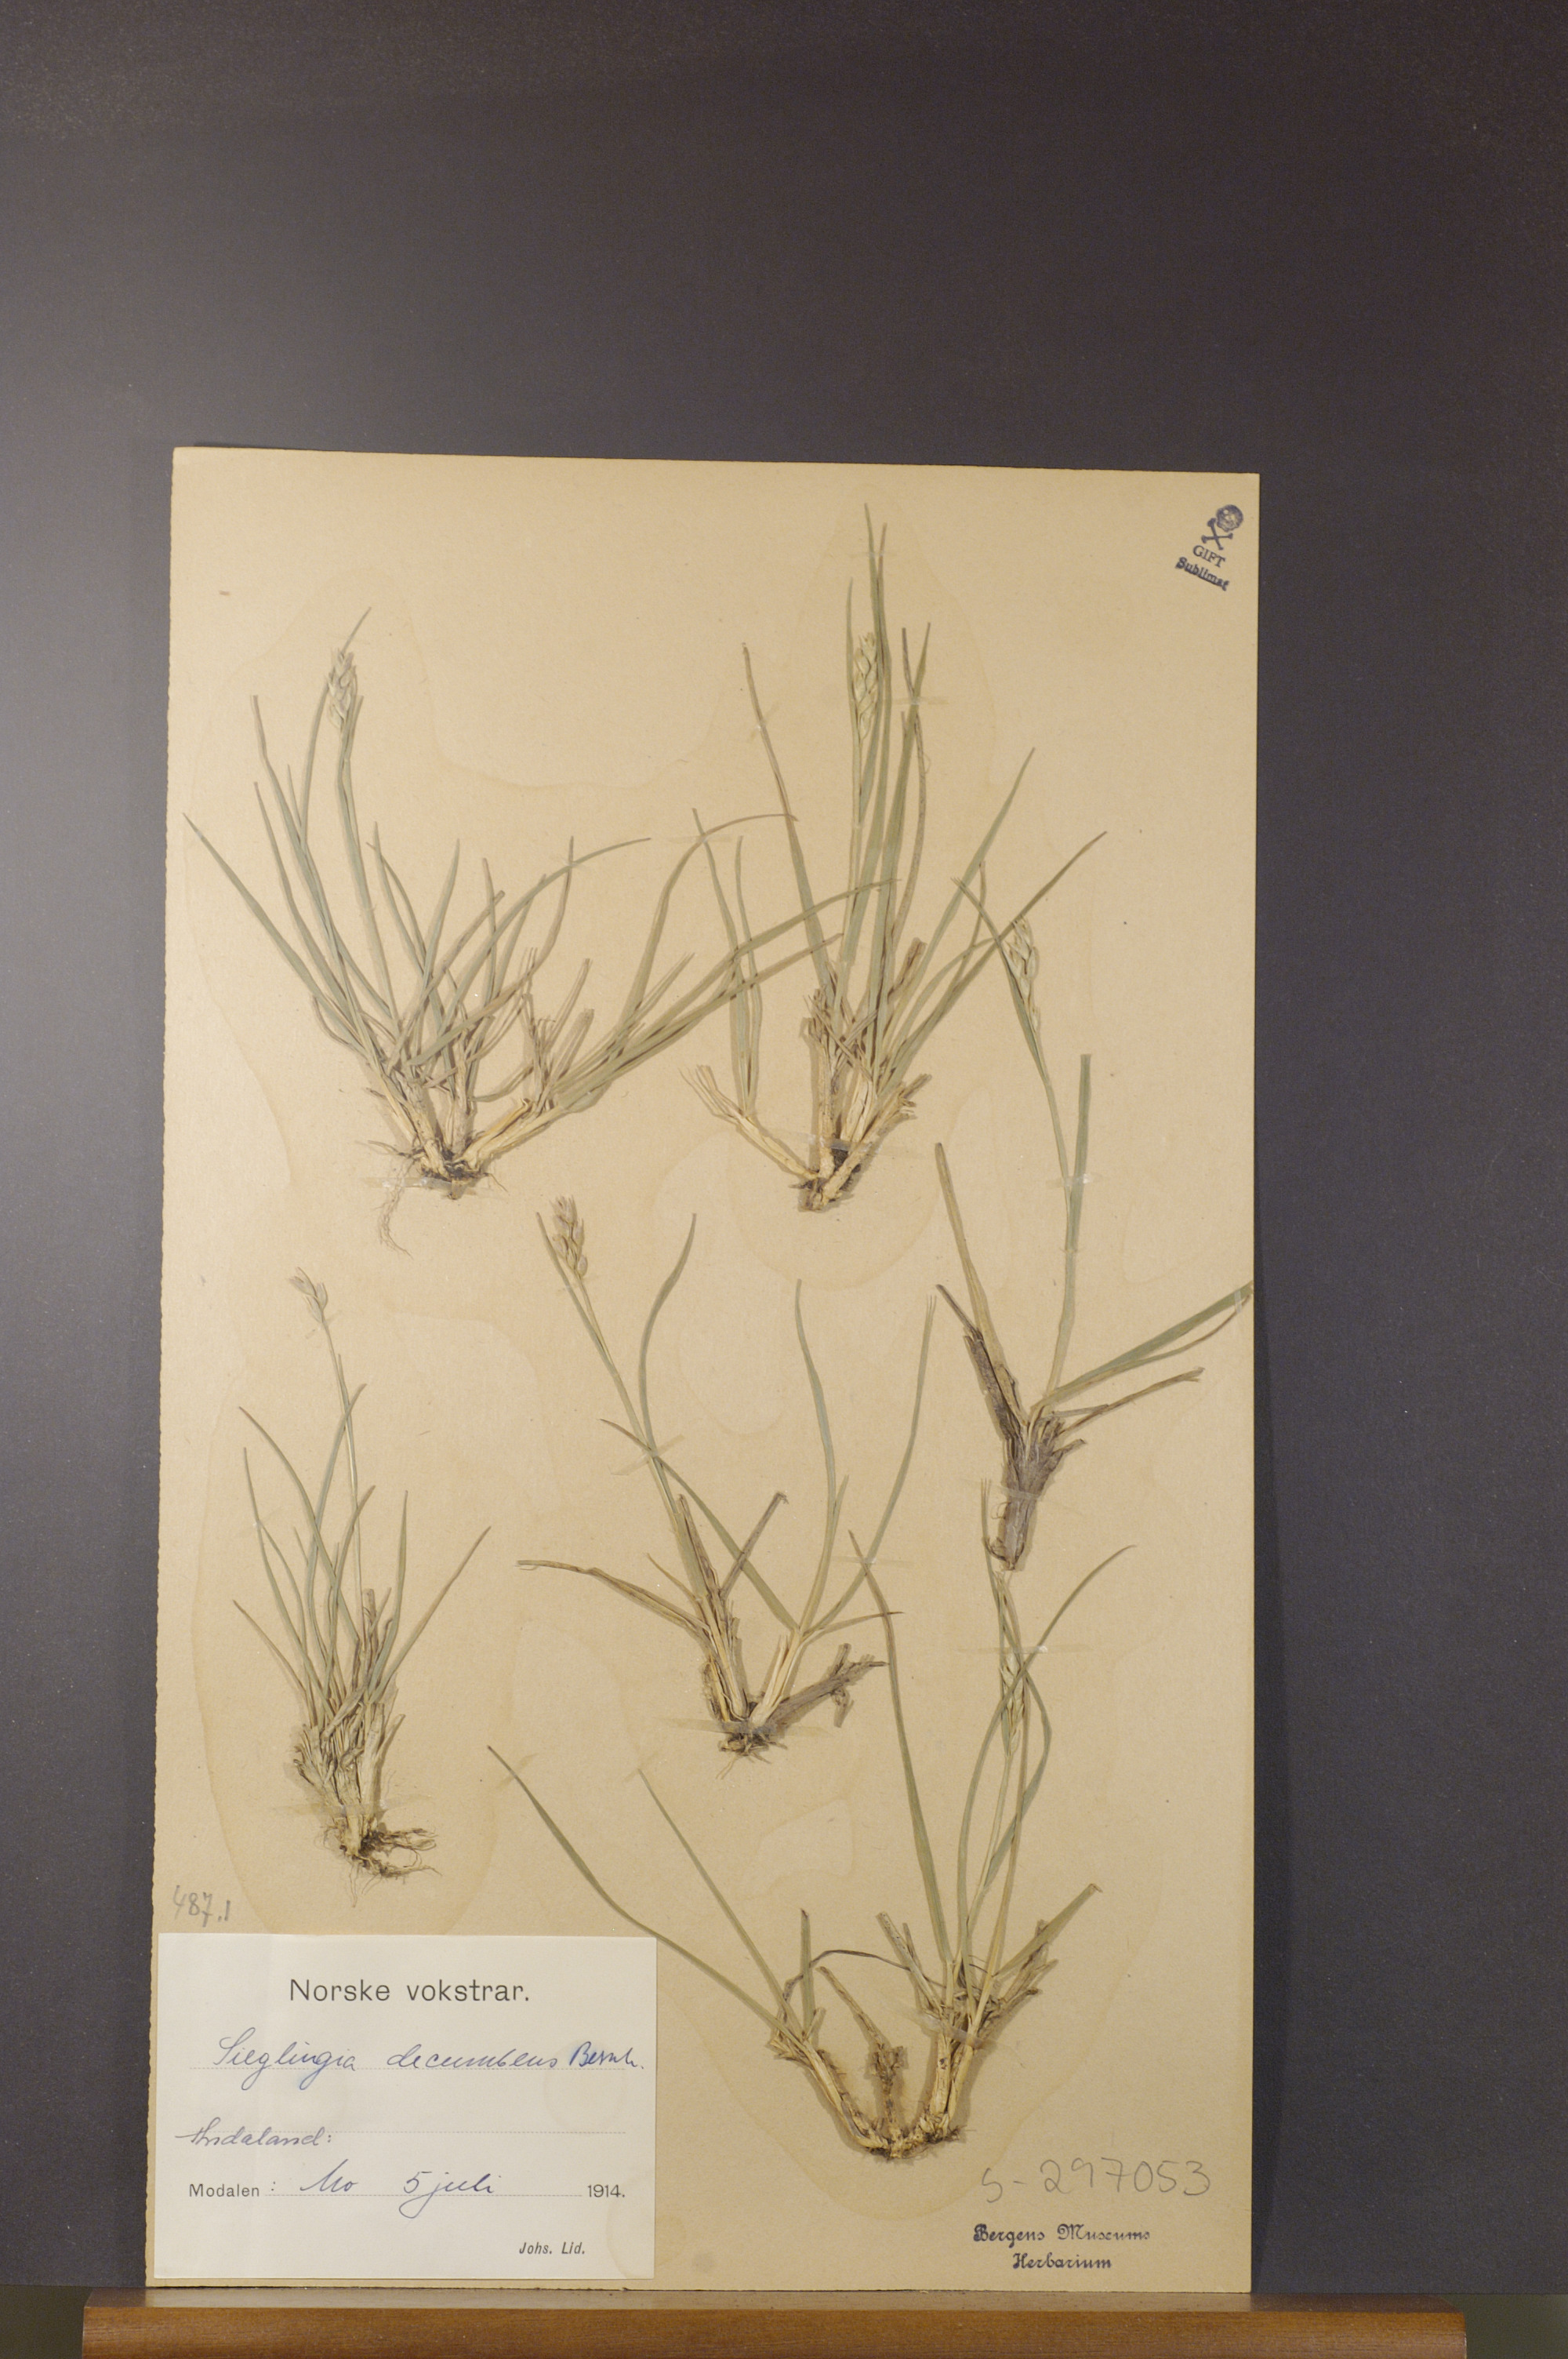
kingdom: Plantae
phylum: Tracheophyta
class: Liliopsida
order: Poales
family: Poaceae
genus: Danthonia
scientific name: Danthonia decumbens
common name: Common heathgrass
